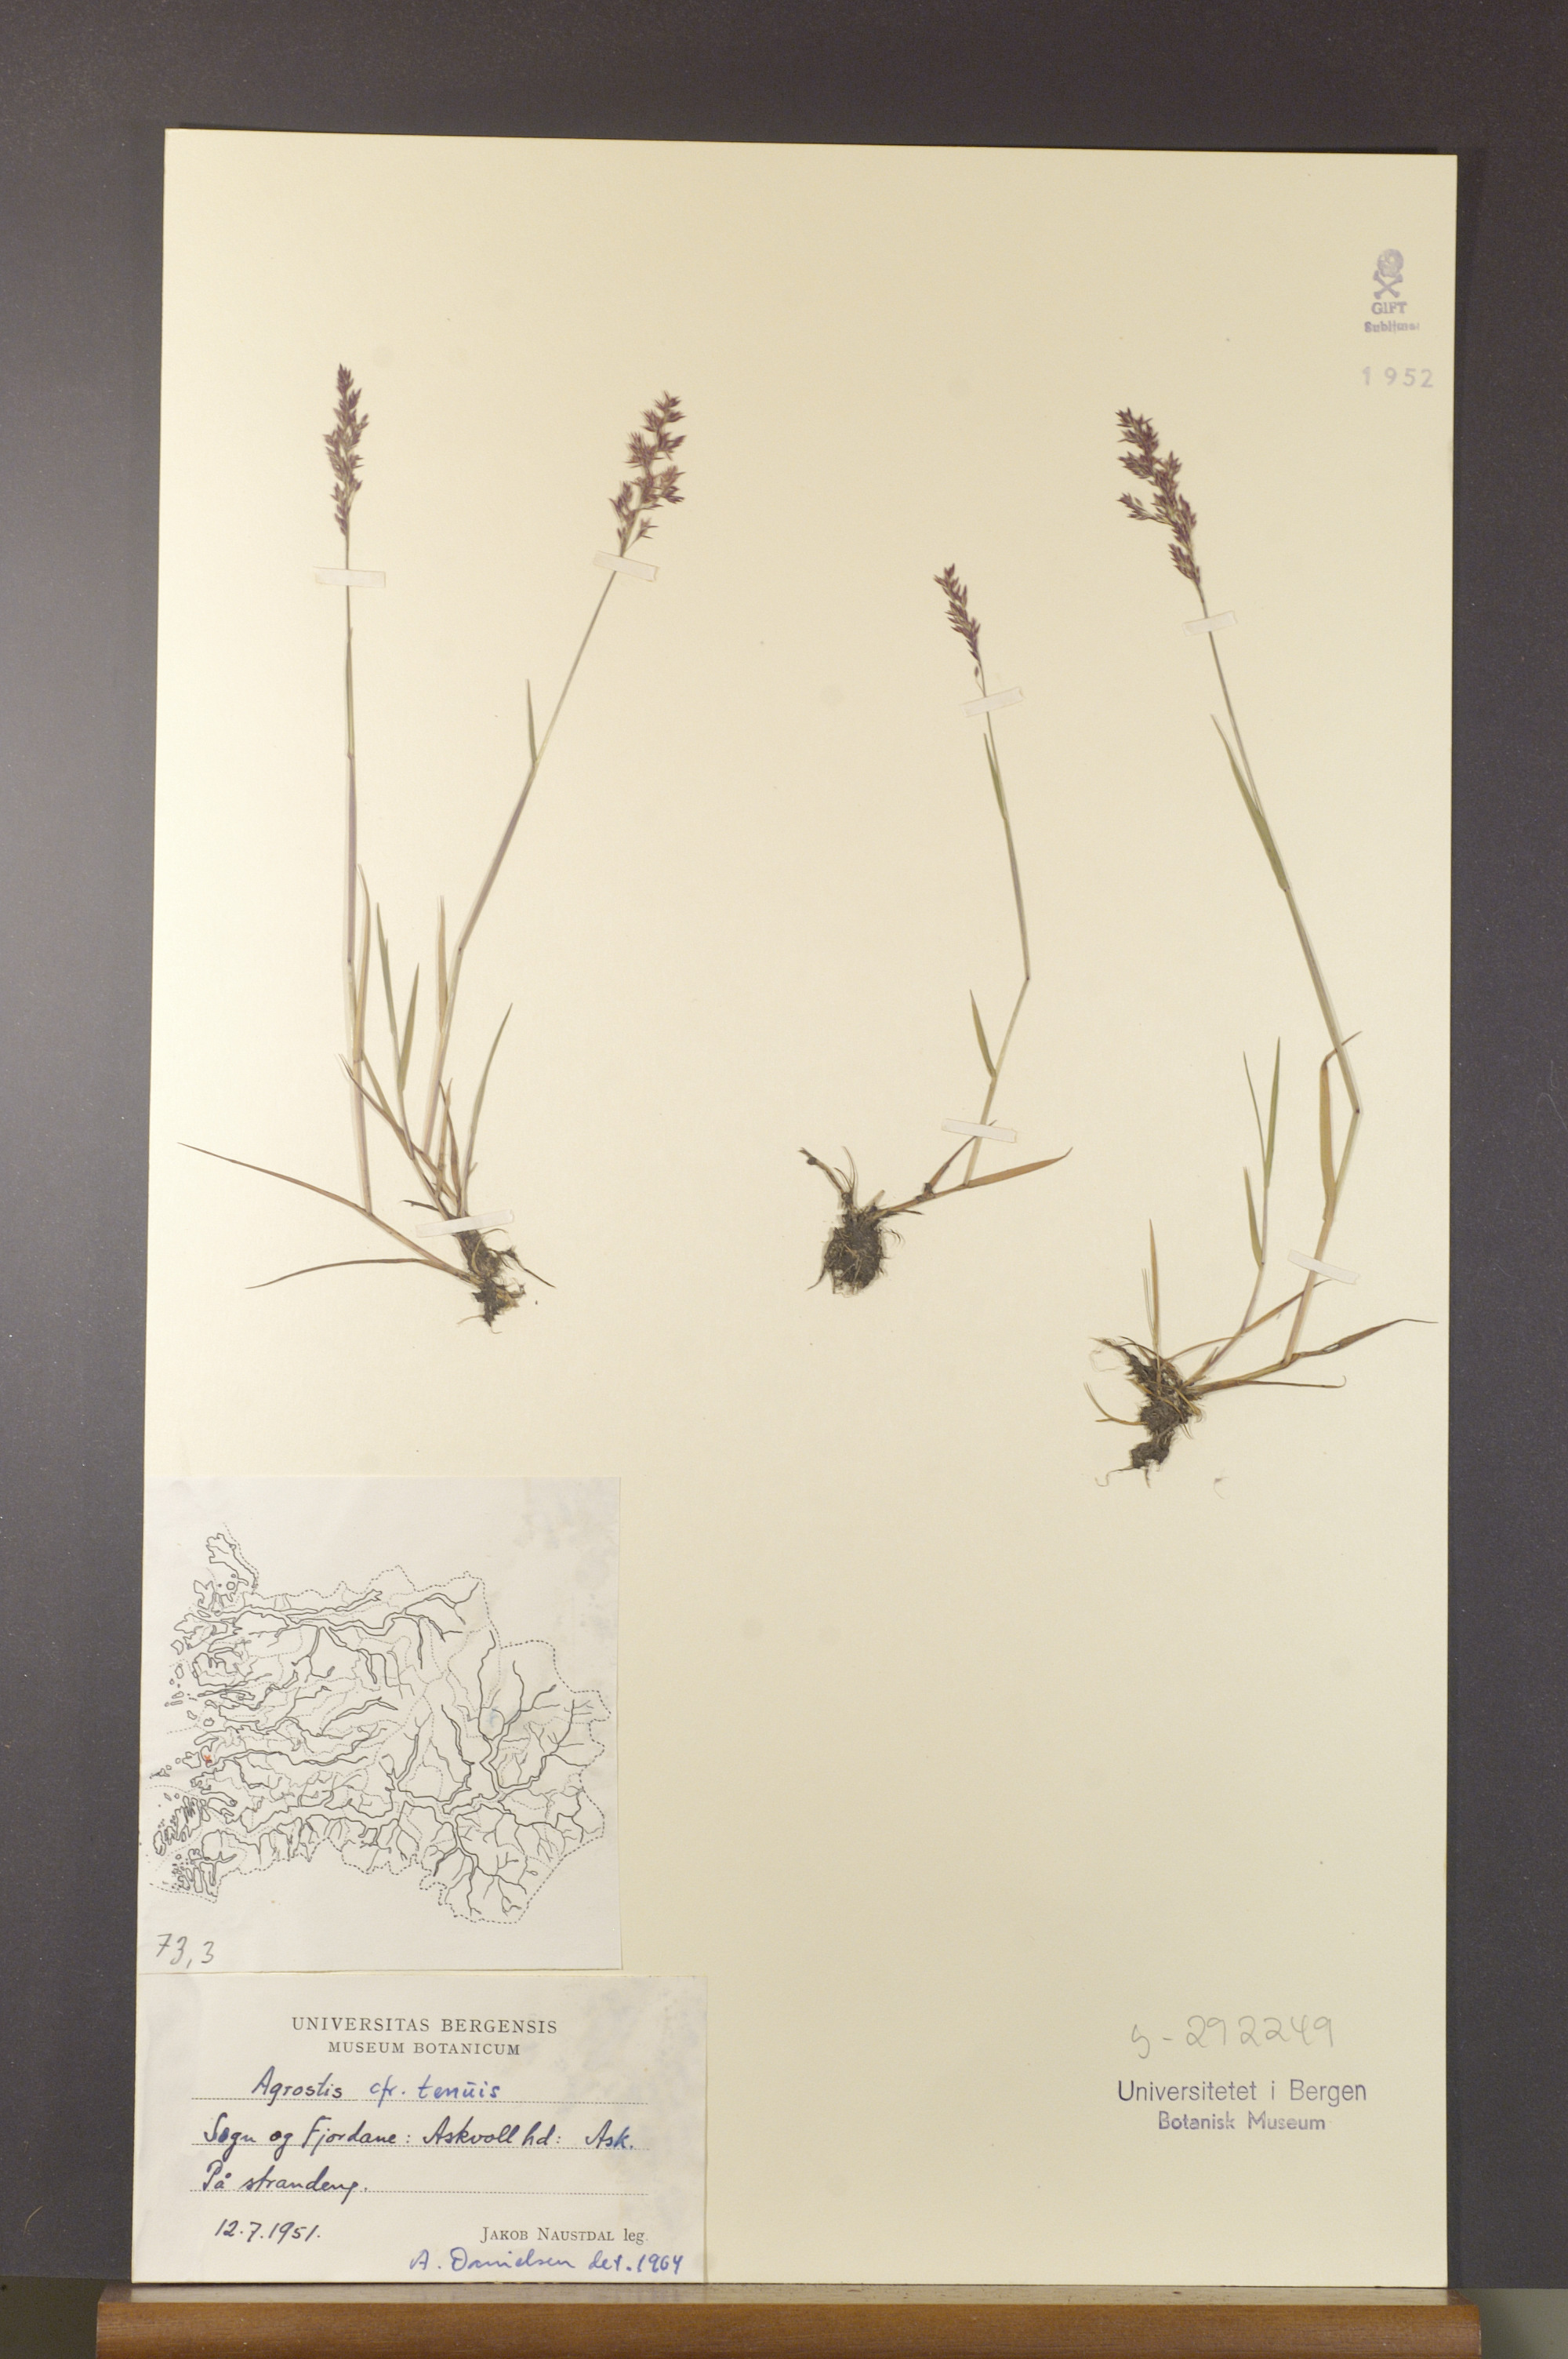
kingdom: Plantae
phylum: Tracheophyta
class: Liliopsida
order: Poales
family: Poaceae
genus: Agrostis
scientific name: Agrostis capillaris
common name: Colonial bentgrass
